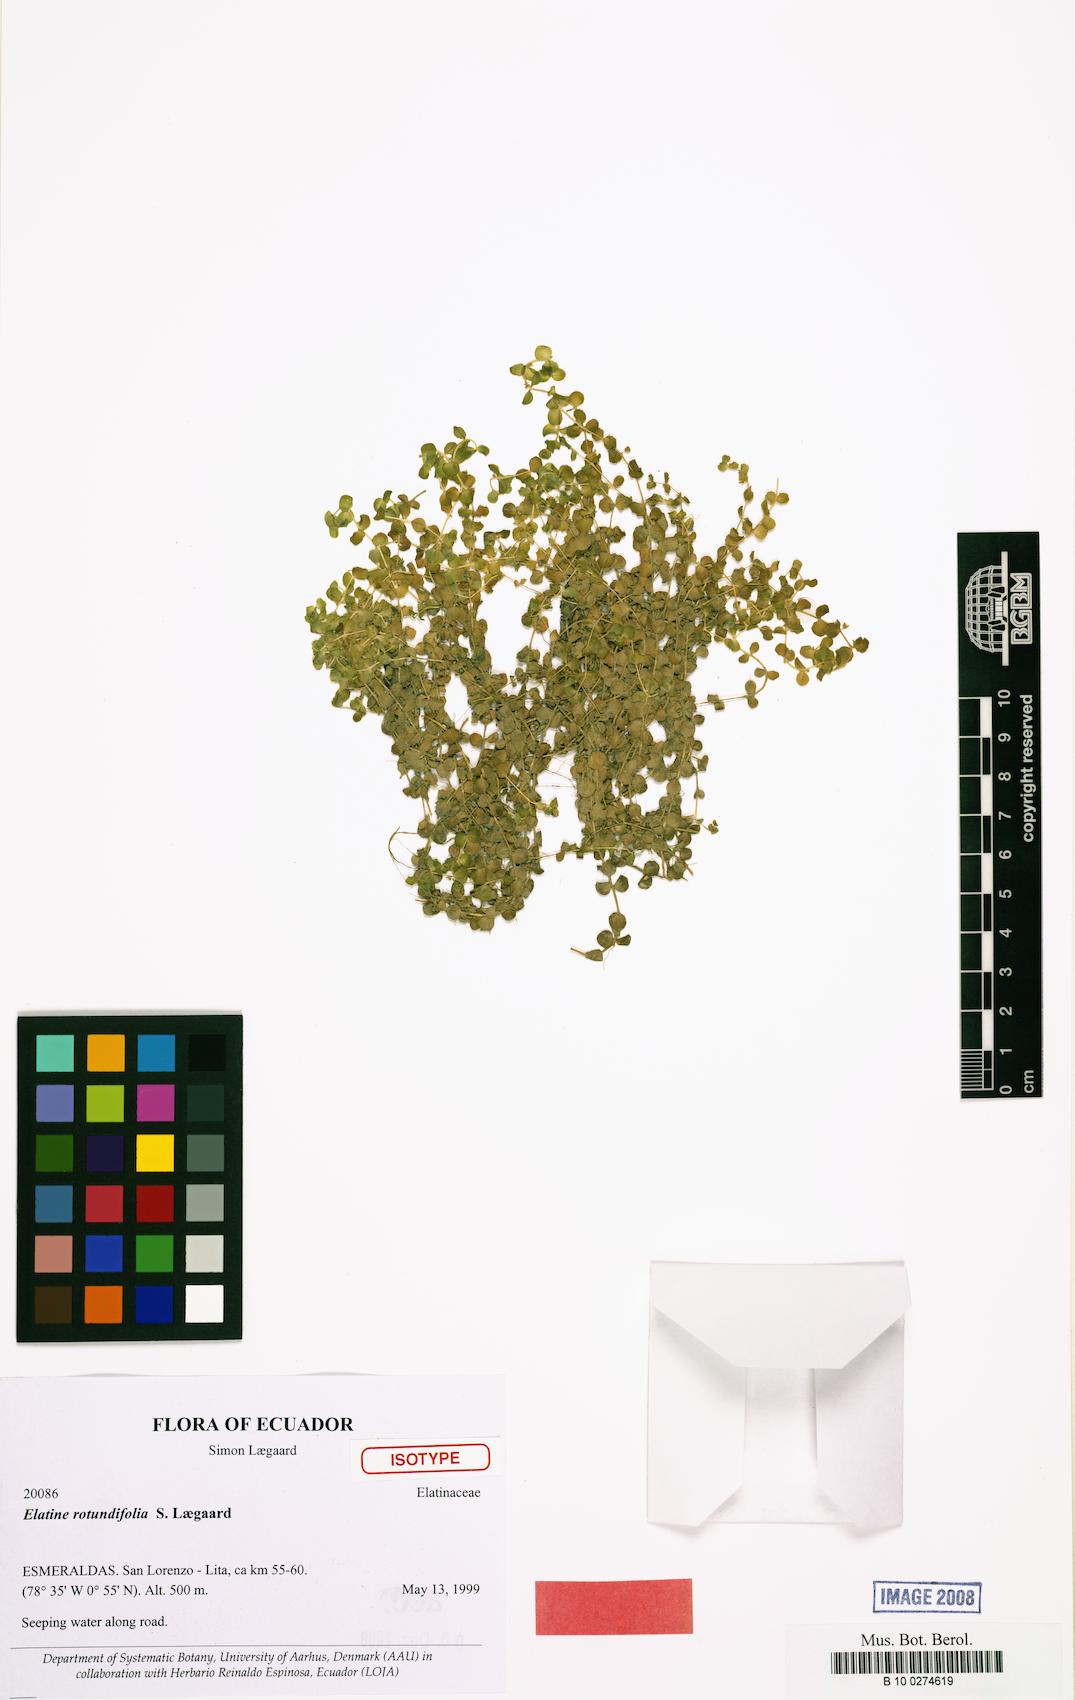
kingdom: Plantae
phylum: Tracheophyta
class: Magnoliopsida
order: Malpighiales
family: Elatinaceae
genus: Elatine
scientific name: Elatine rotundifolia
